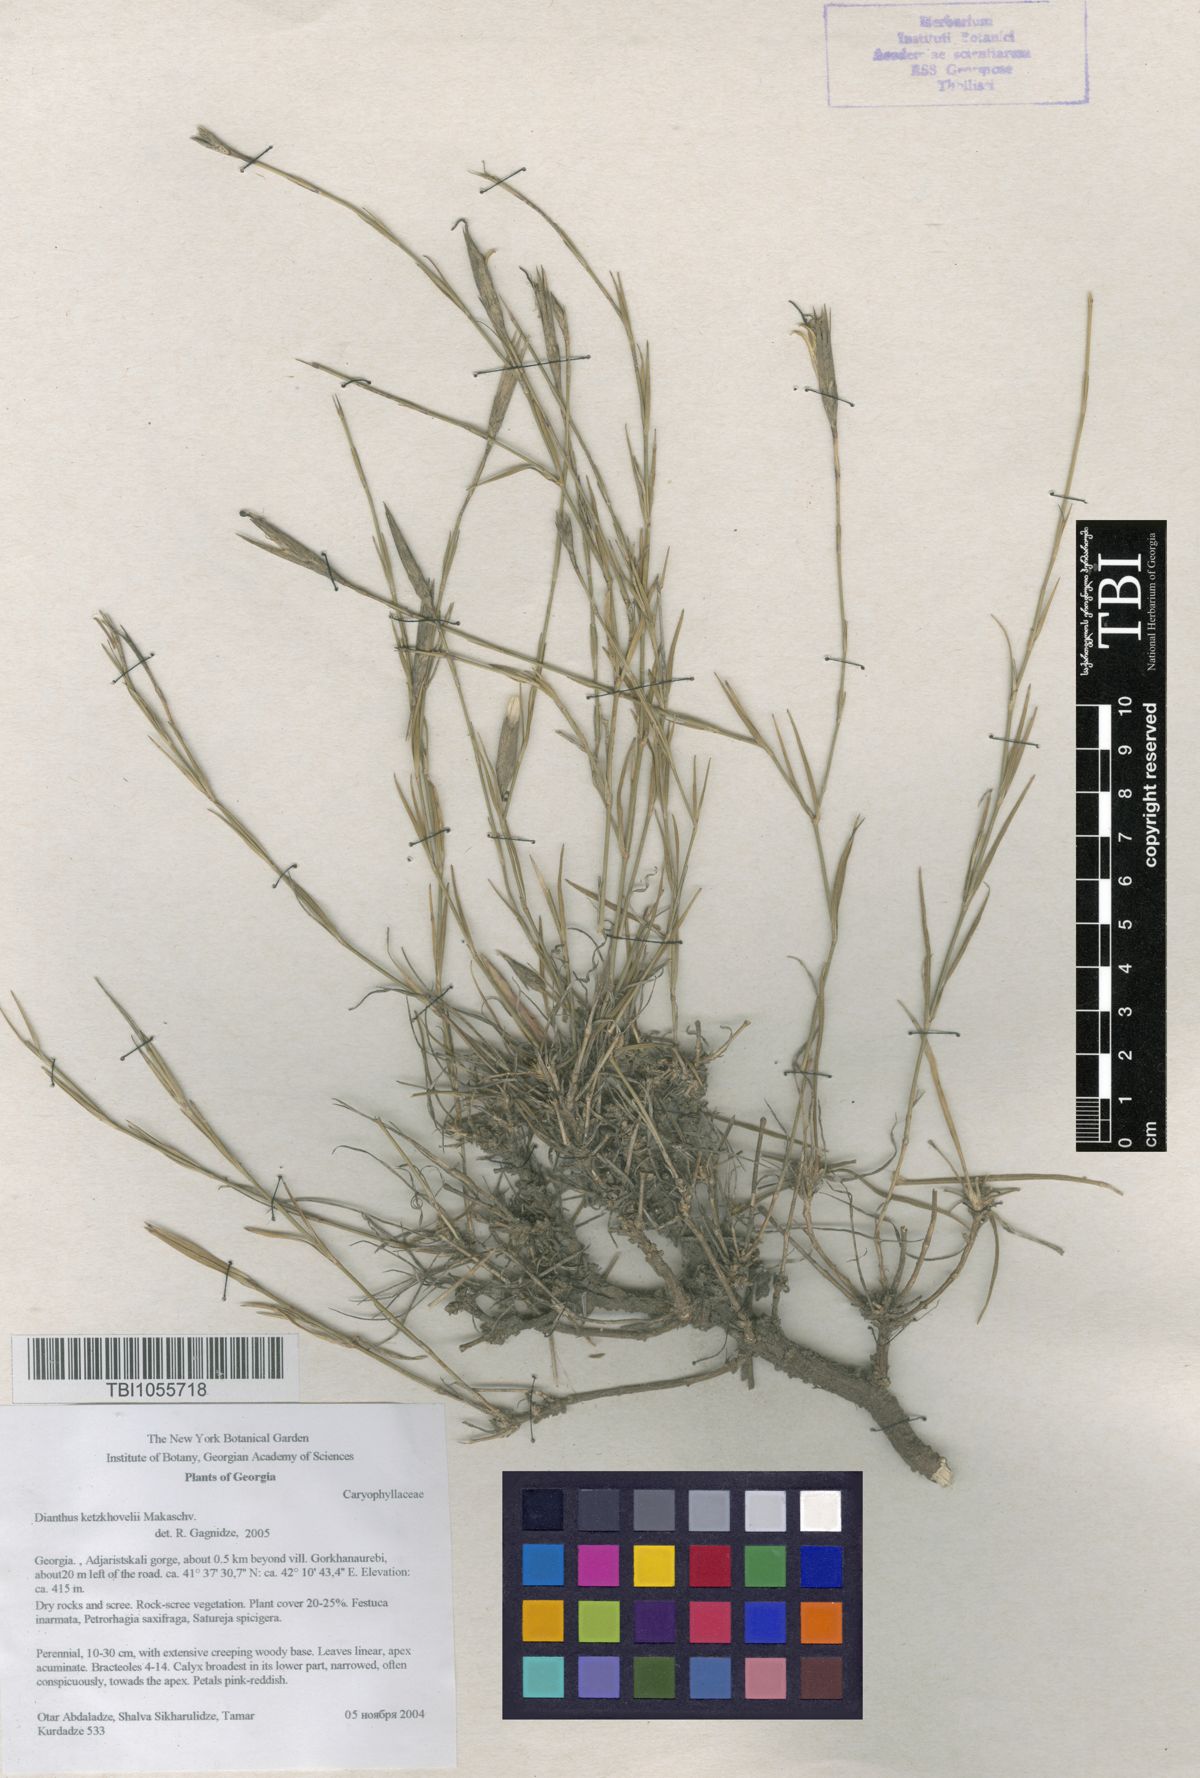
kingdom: Plantae
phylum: Tracheophyta
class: Magnoliopsida
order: Caryophyllales
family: Caryophyllaceae
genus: Dianthus
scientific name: Dianthus orientalis
